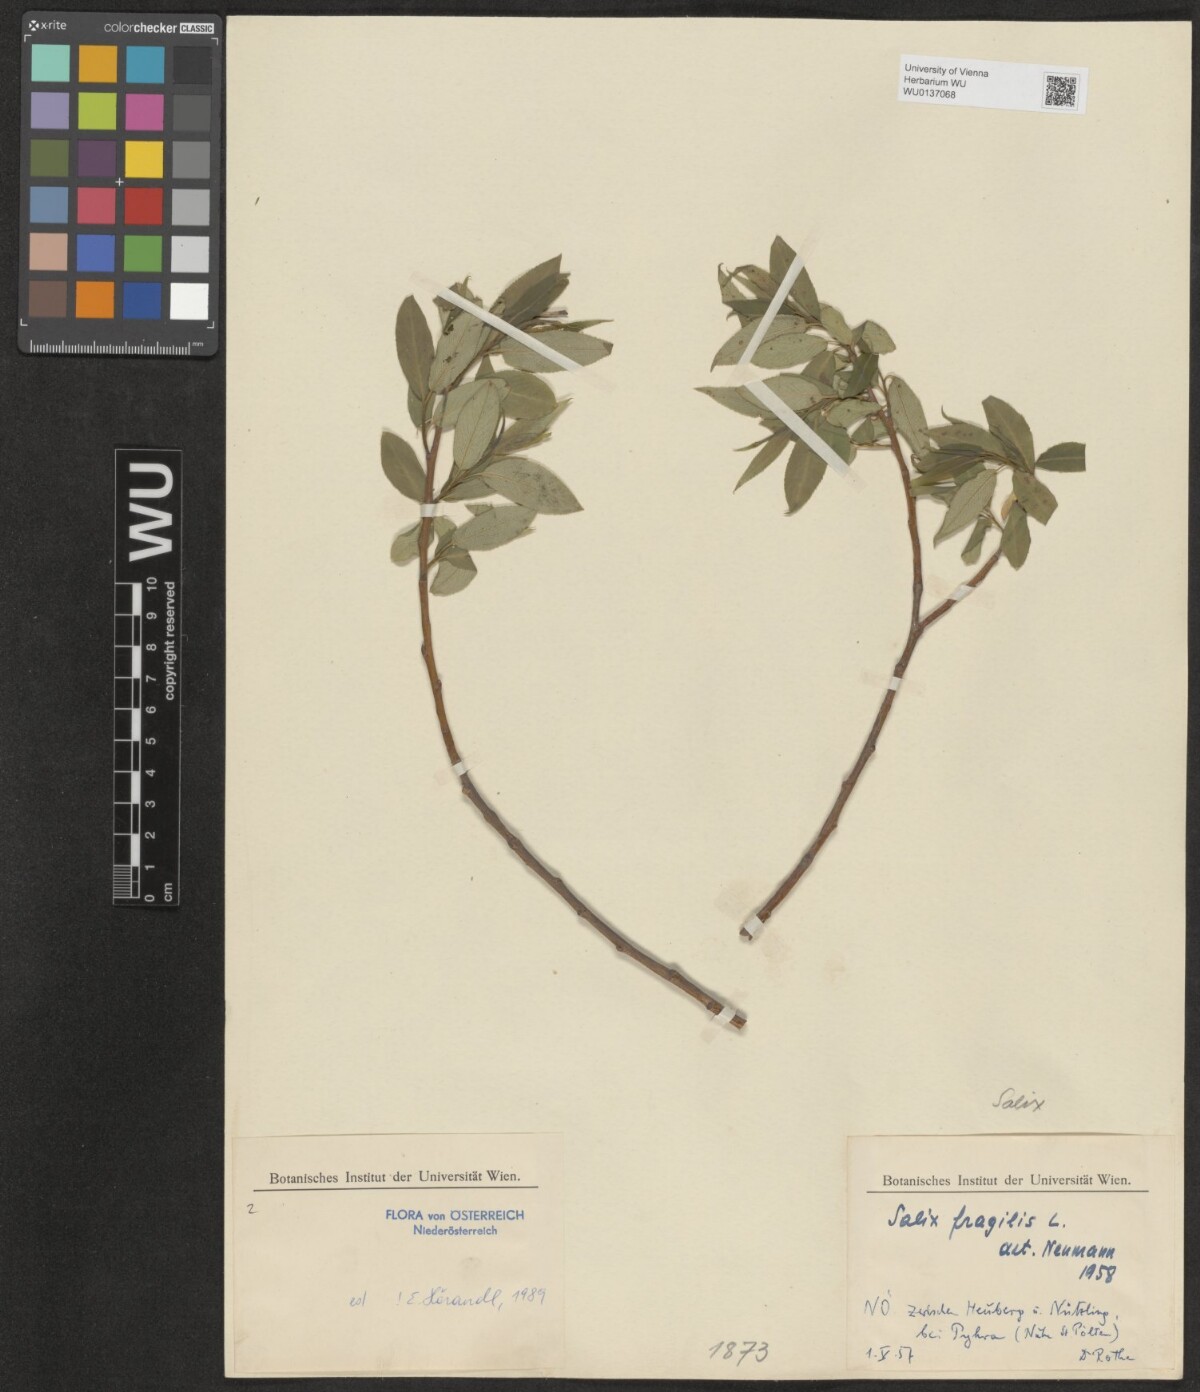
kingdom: Plantae
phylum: Tracheophyta
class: Magnoliopsida
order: Malpighiales
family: Salicaceae
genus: Salix
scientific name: Salix fragilis
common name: Crack willow
